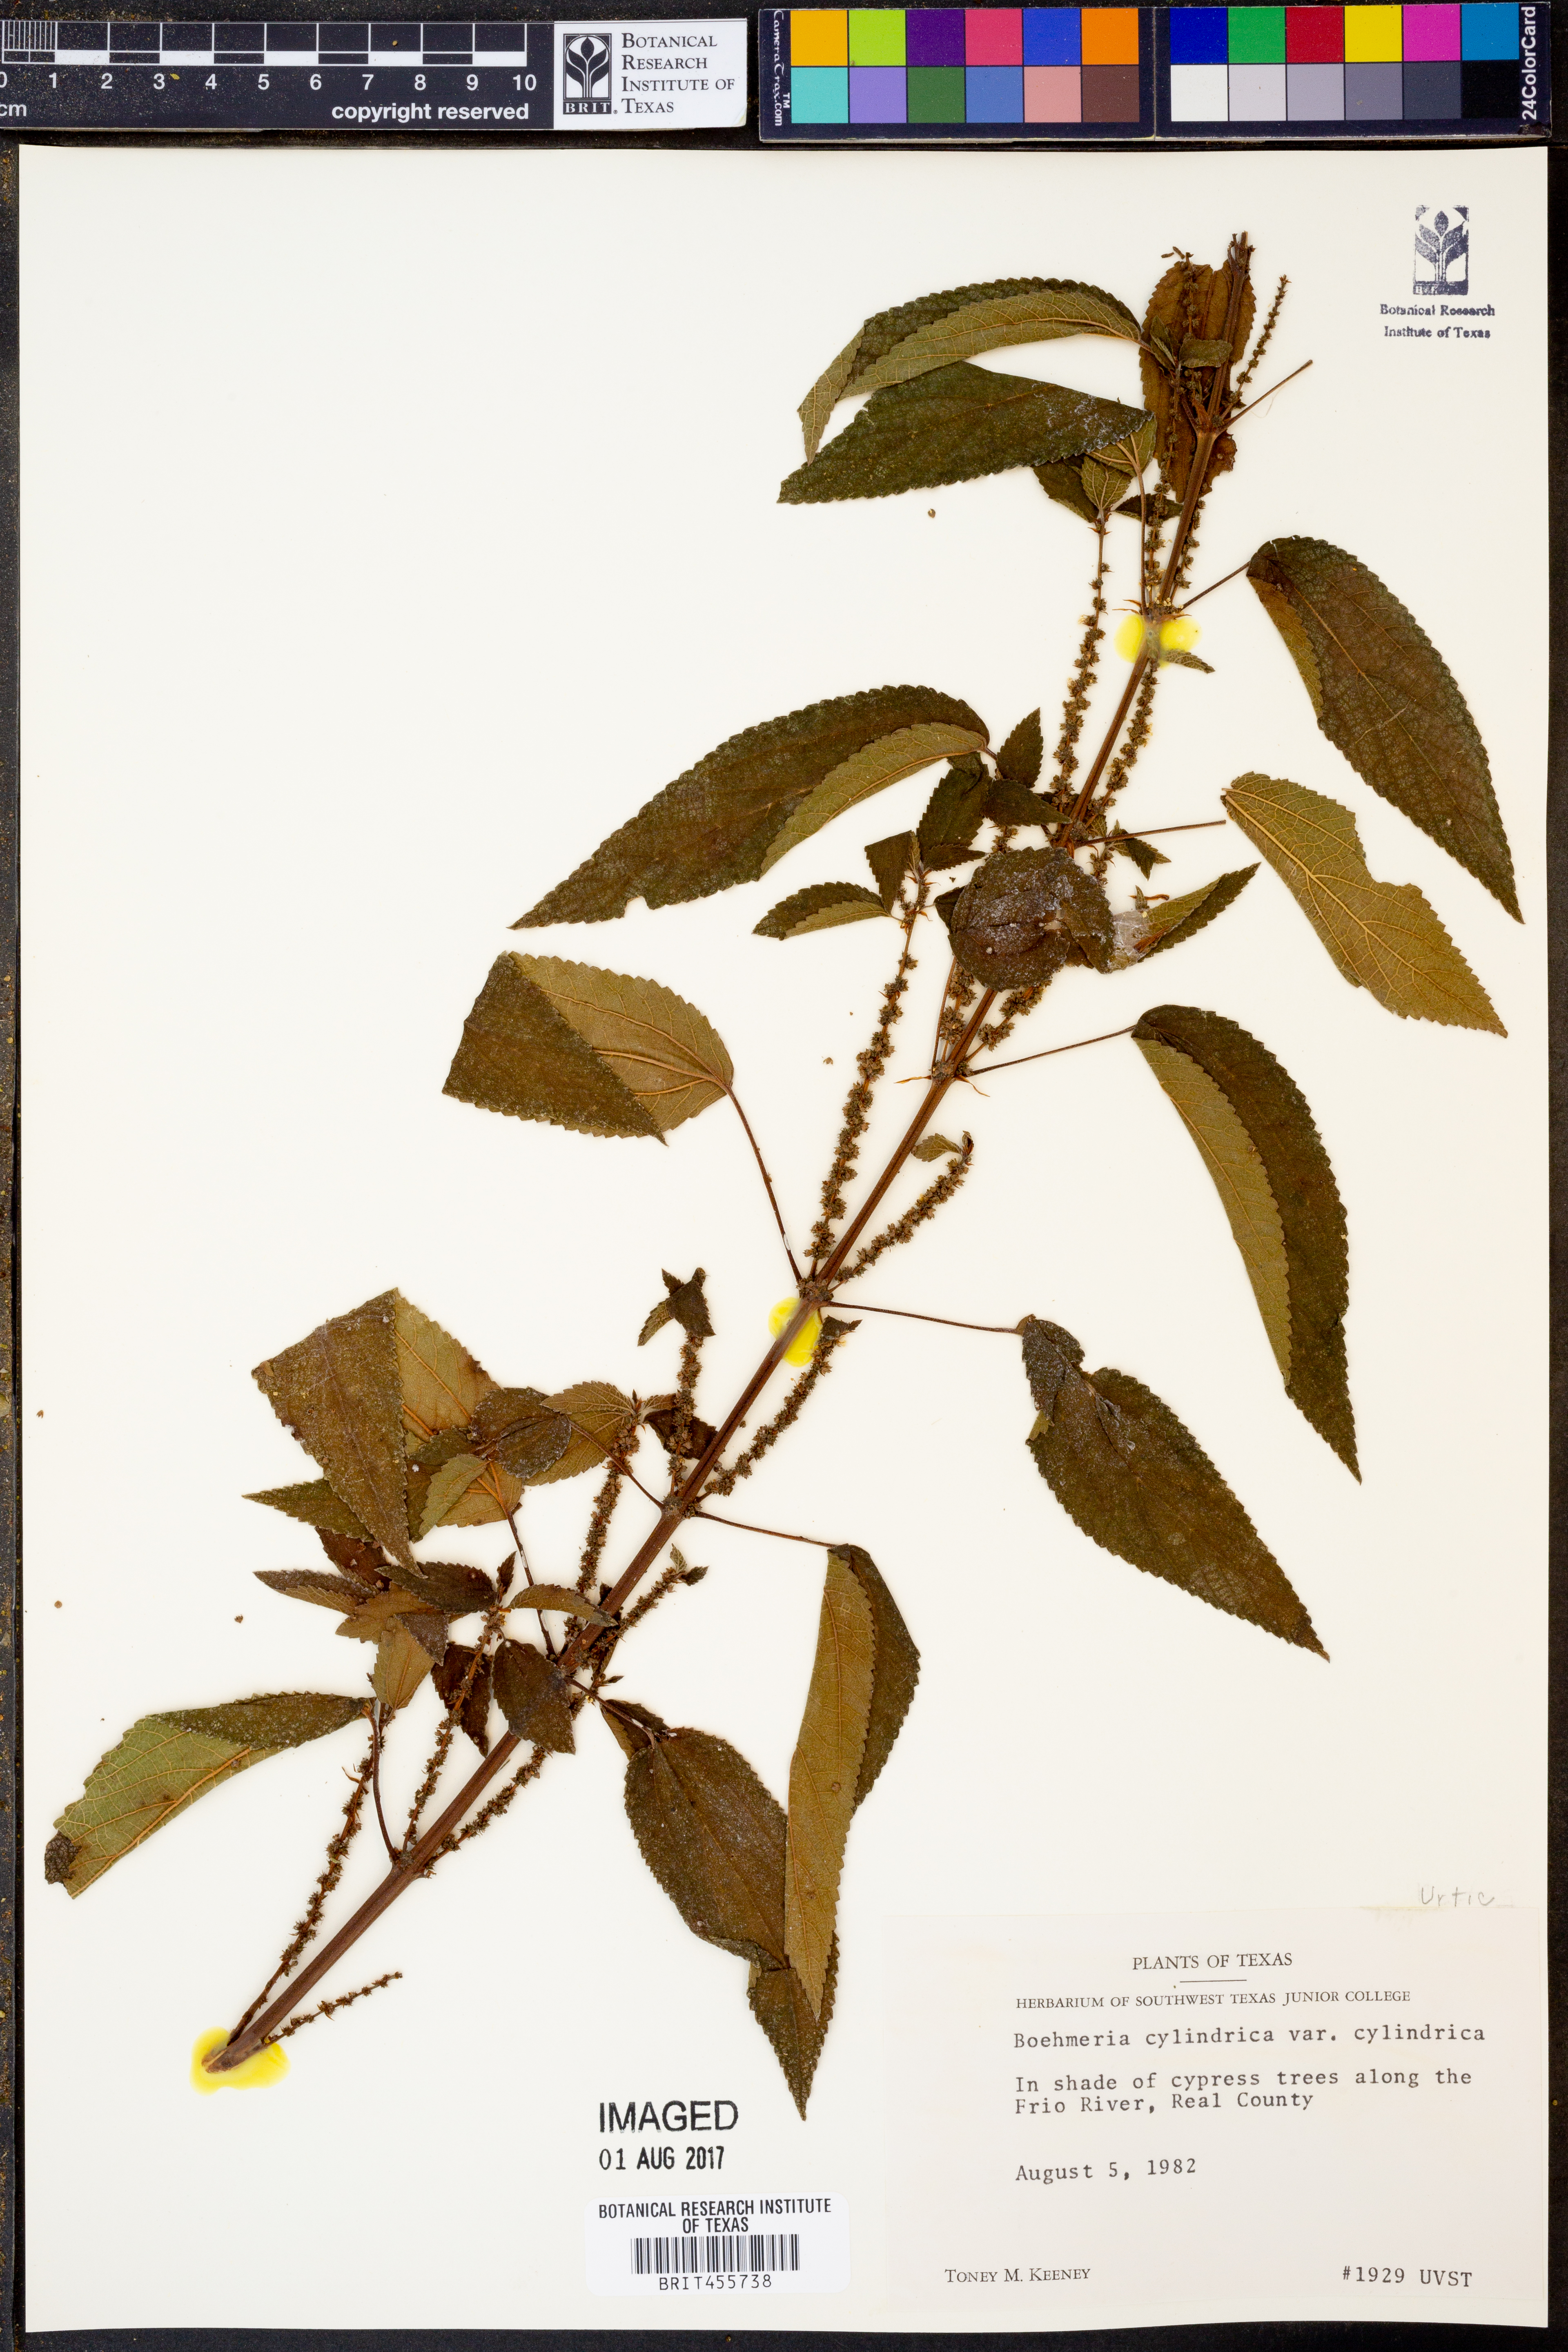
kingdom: Plantae
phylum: Tracheophyta
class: Magnoliopsida
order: Rosales
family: Urticaceae
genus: Boehmeria
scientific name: Boehmeria cylindrica
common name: Bog-hemp
